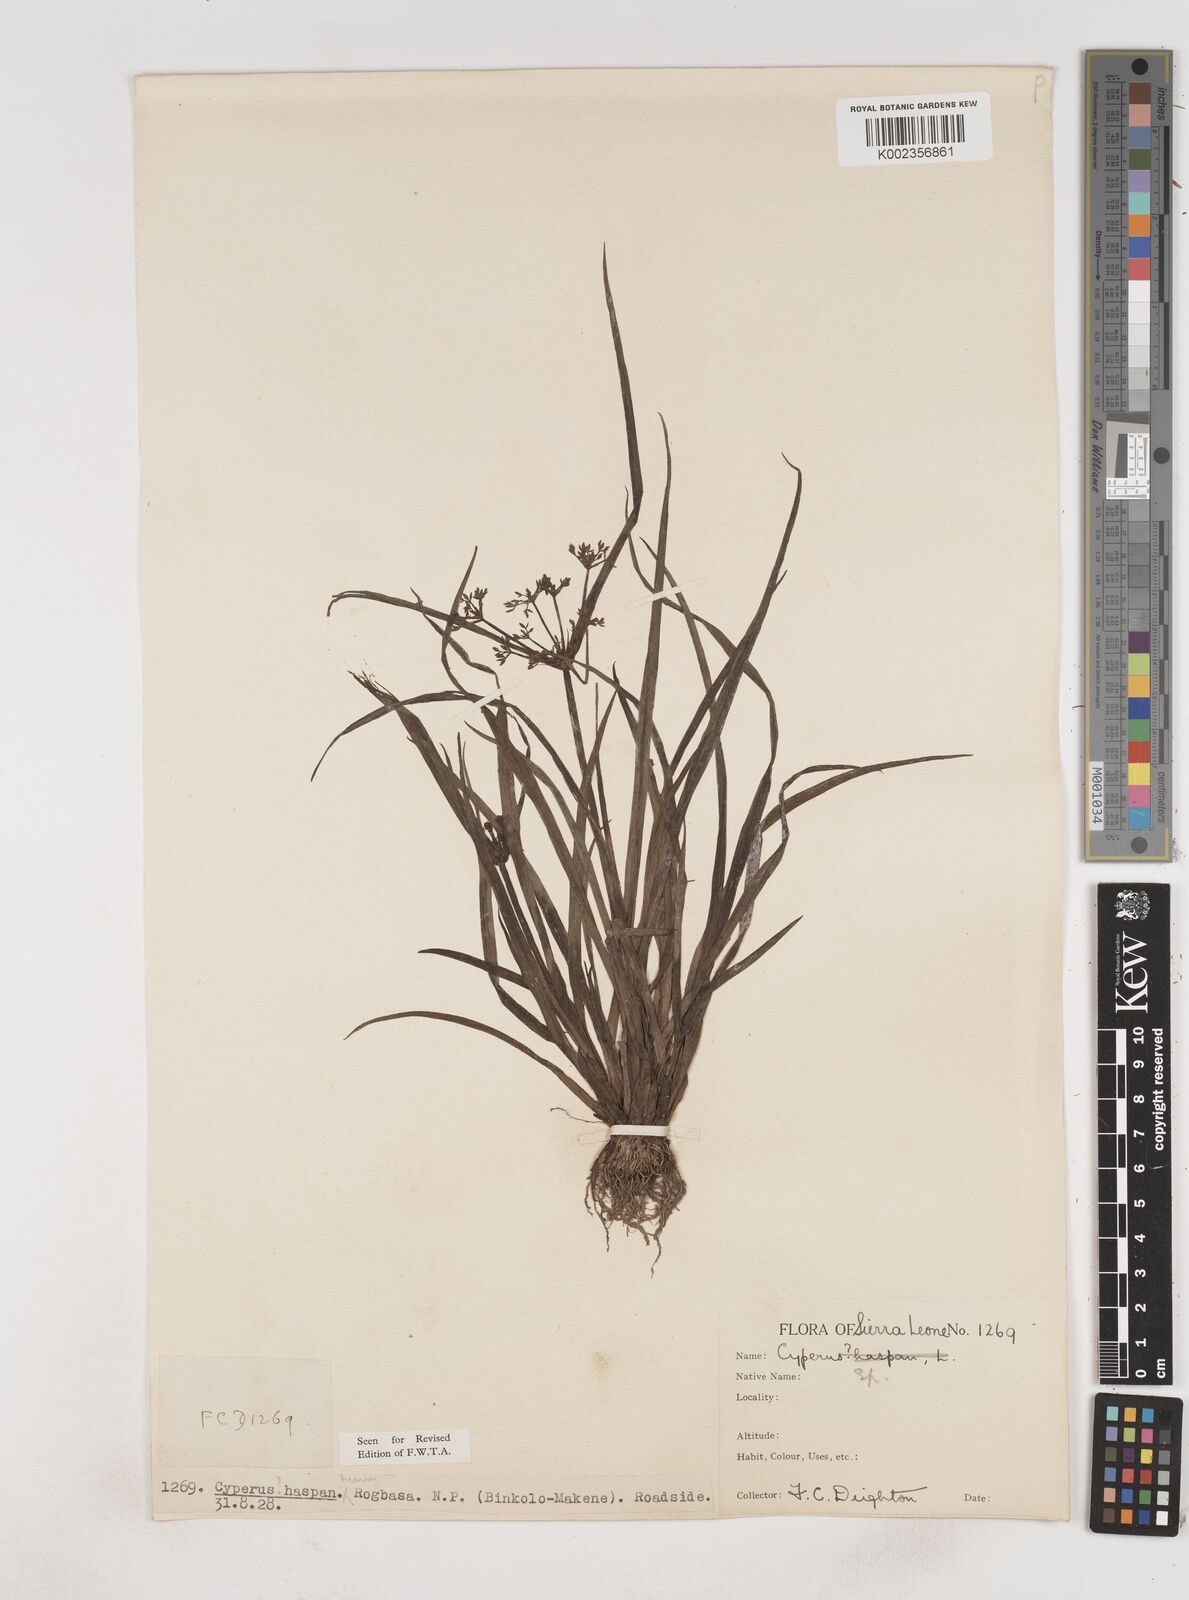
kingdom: Plantae
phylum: Tracheophyta
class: Liliopsida
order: Poales
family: Cyperaceae
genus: Cyperus
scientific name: Cyperus haspan
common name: Haspan flatsedge
